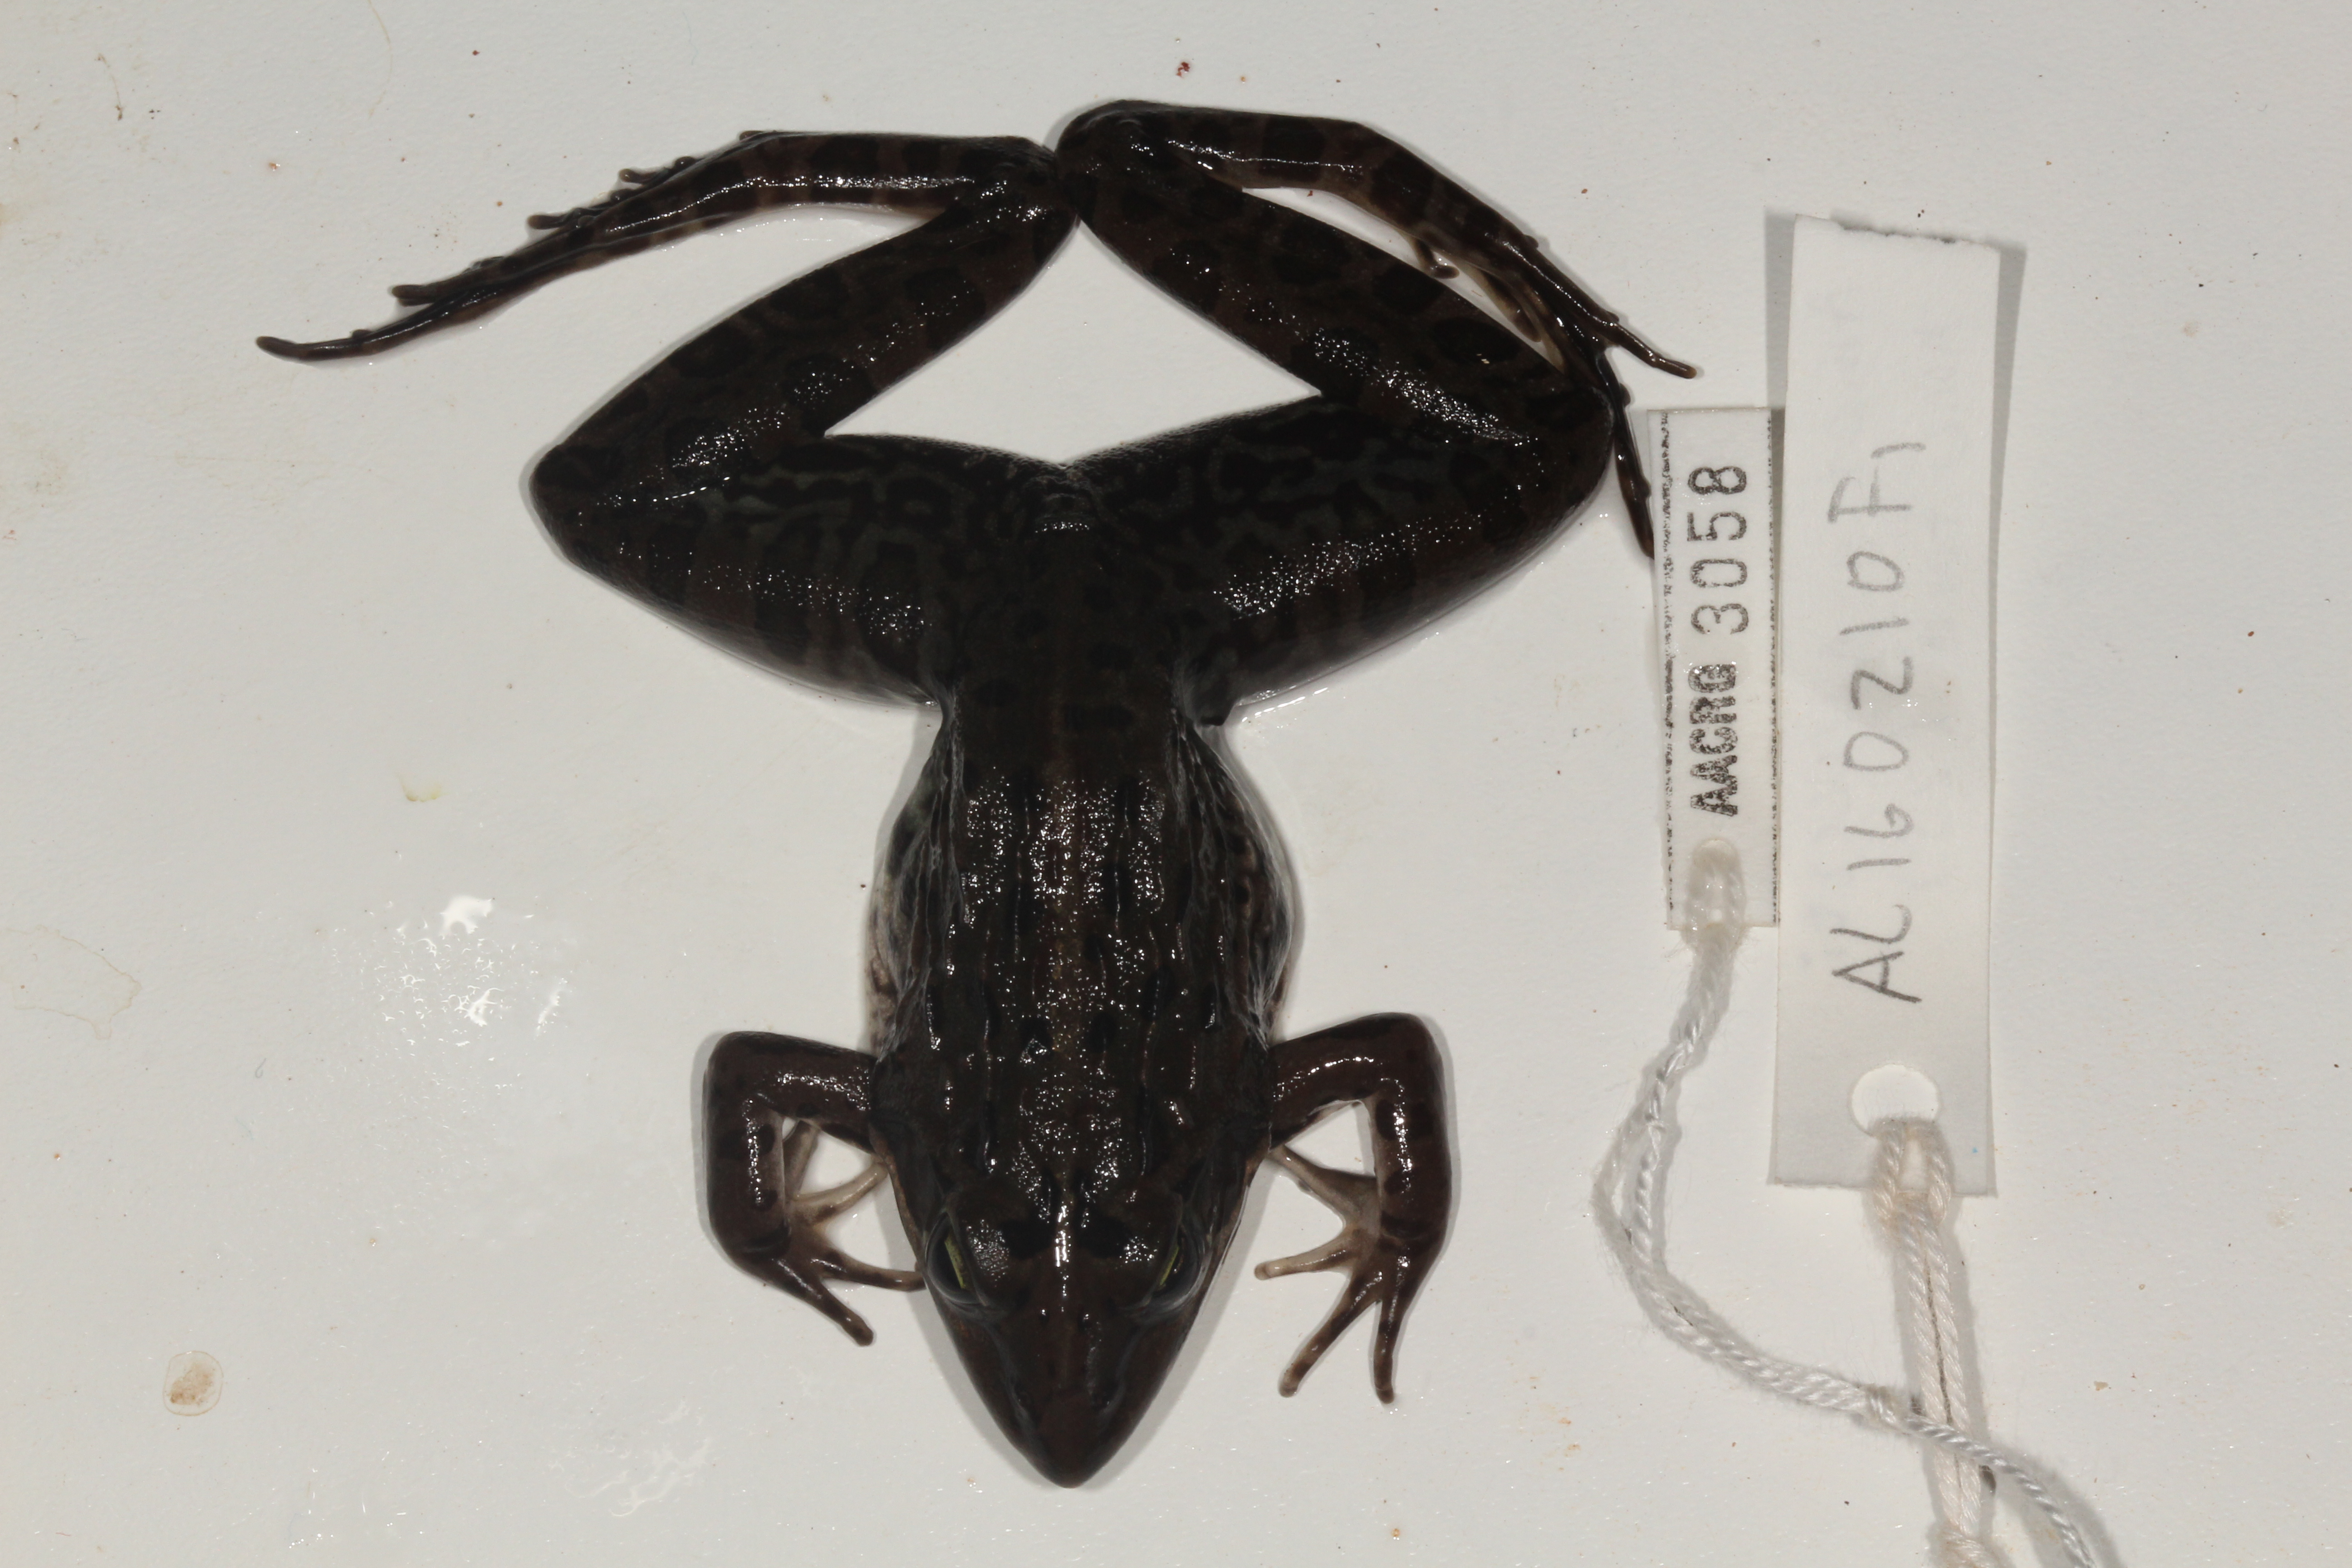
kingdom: Animalia
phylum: Chordata
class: Amphibia
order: Anura
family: Pyxicephalidae
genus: Amietia
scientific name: Amietia delalandii
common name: Delalande's river frog
